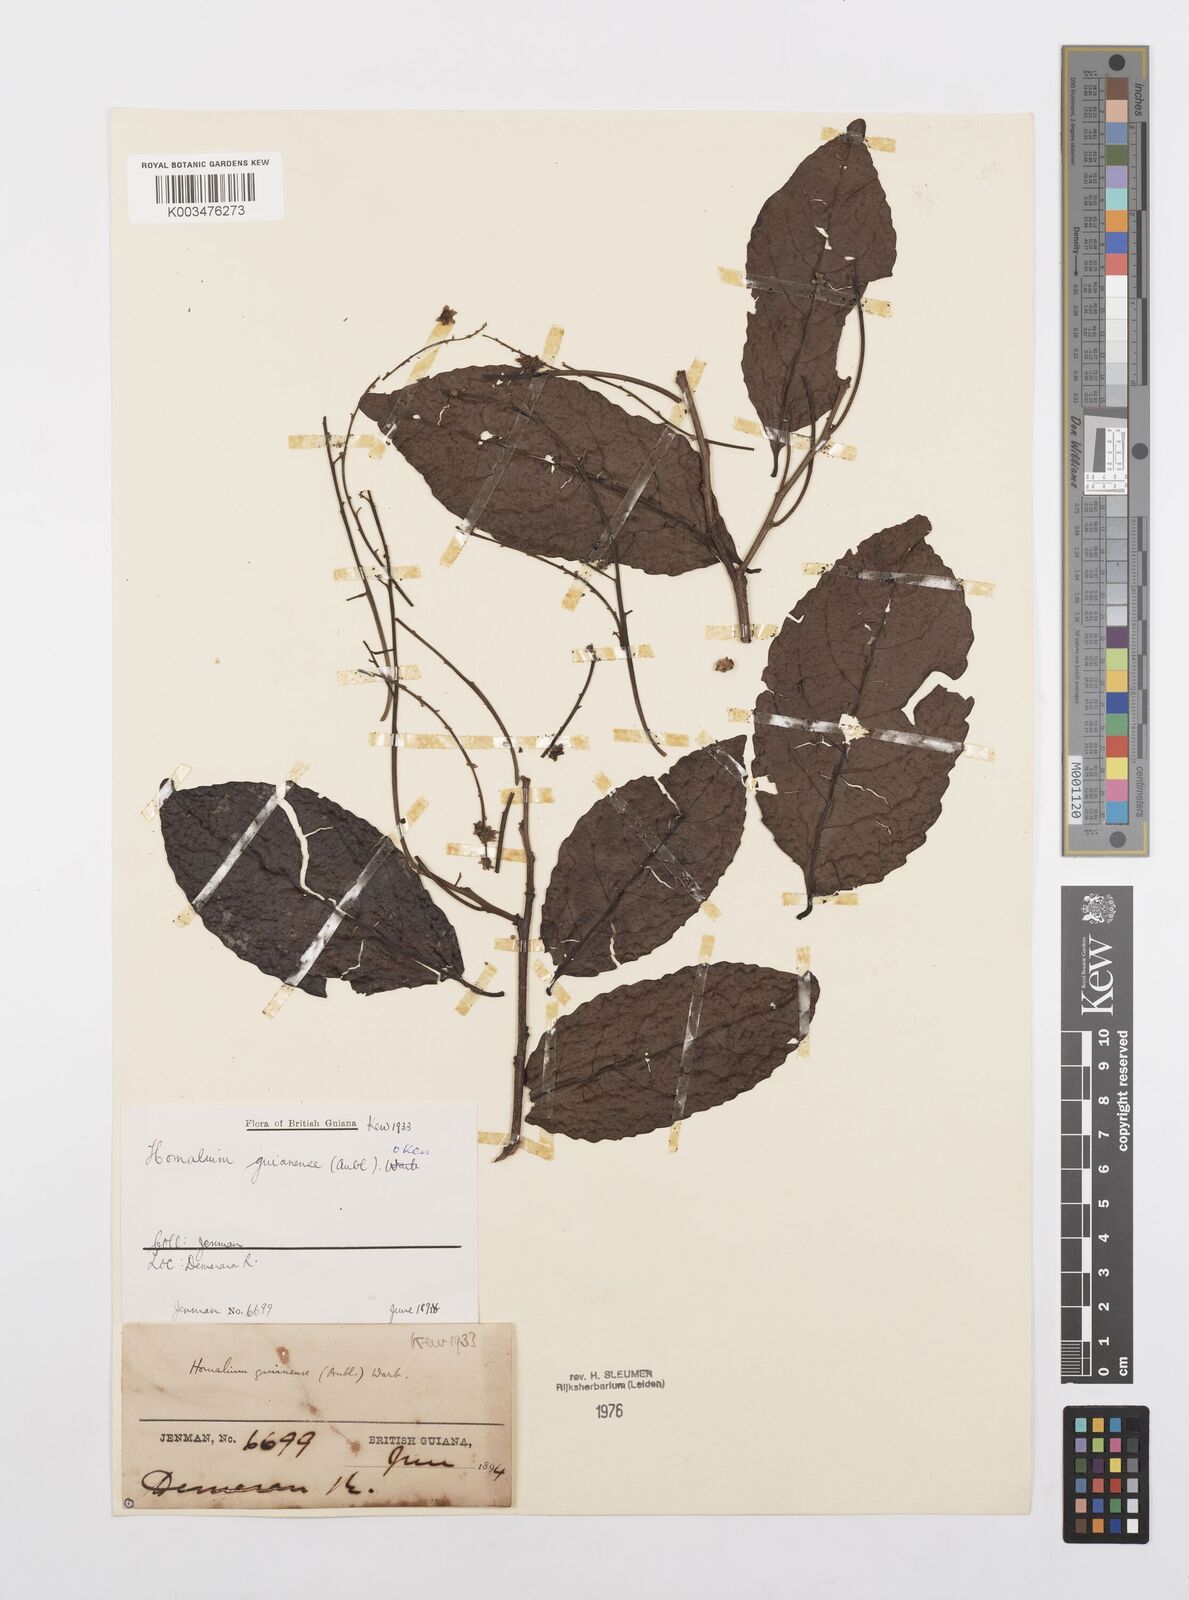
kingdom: Plantae
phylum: Tracheophyta
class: Magnoliopsida
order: Malpighiales
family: Salicaceae
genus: Homalium
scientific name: Homalium guianense
